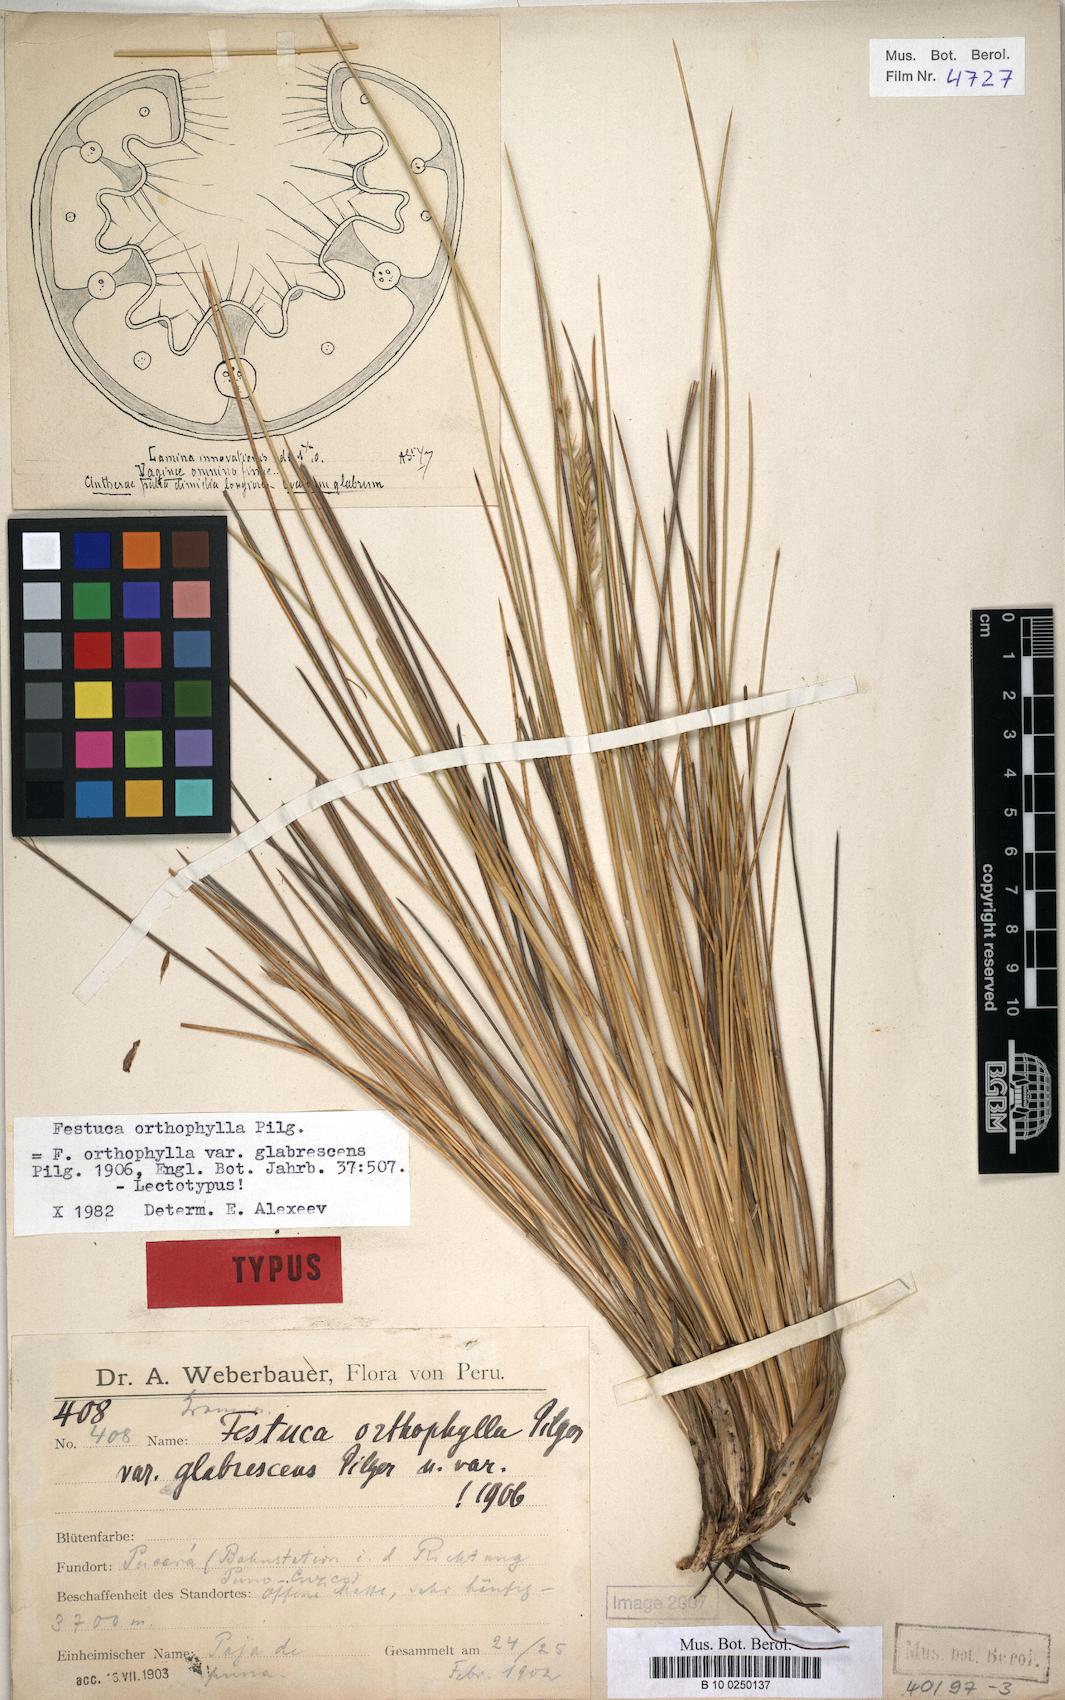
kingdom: Plantae
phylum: Tracheophyta
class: Liliopsida
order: Poales
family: Poaceae
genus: Festuca
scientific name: Festuca chrysophylla
